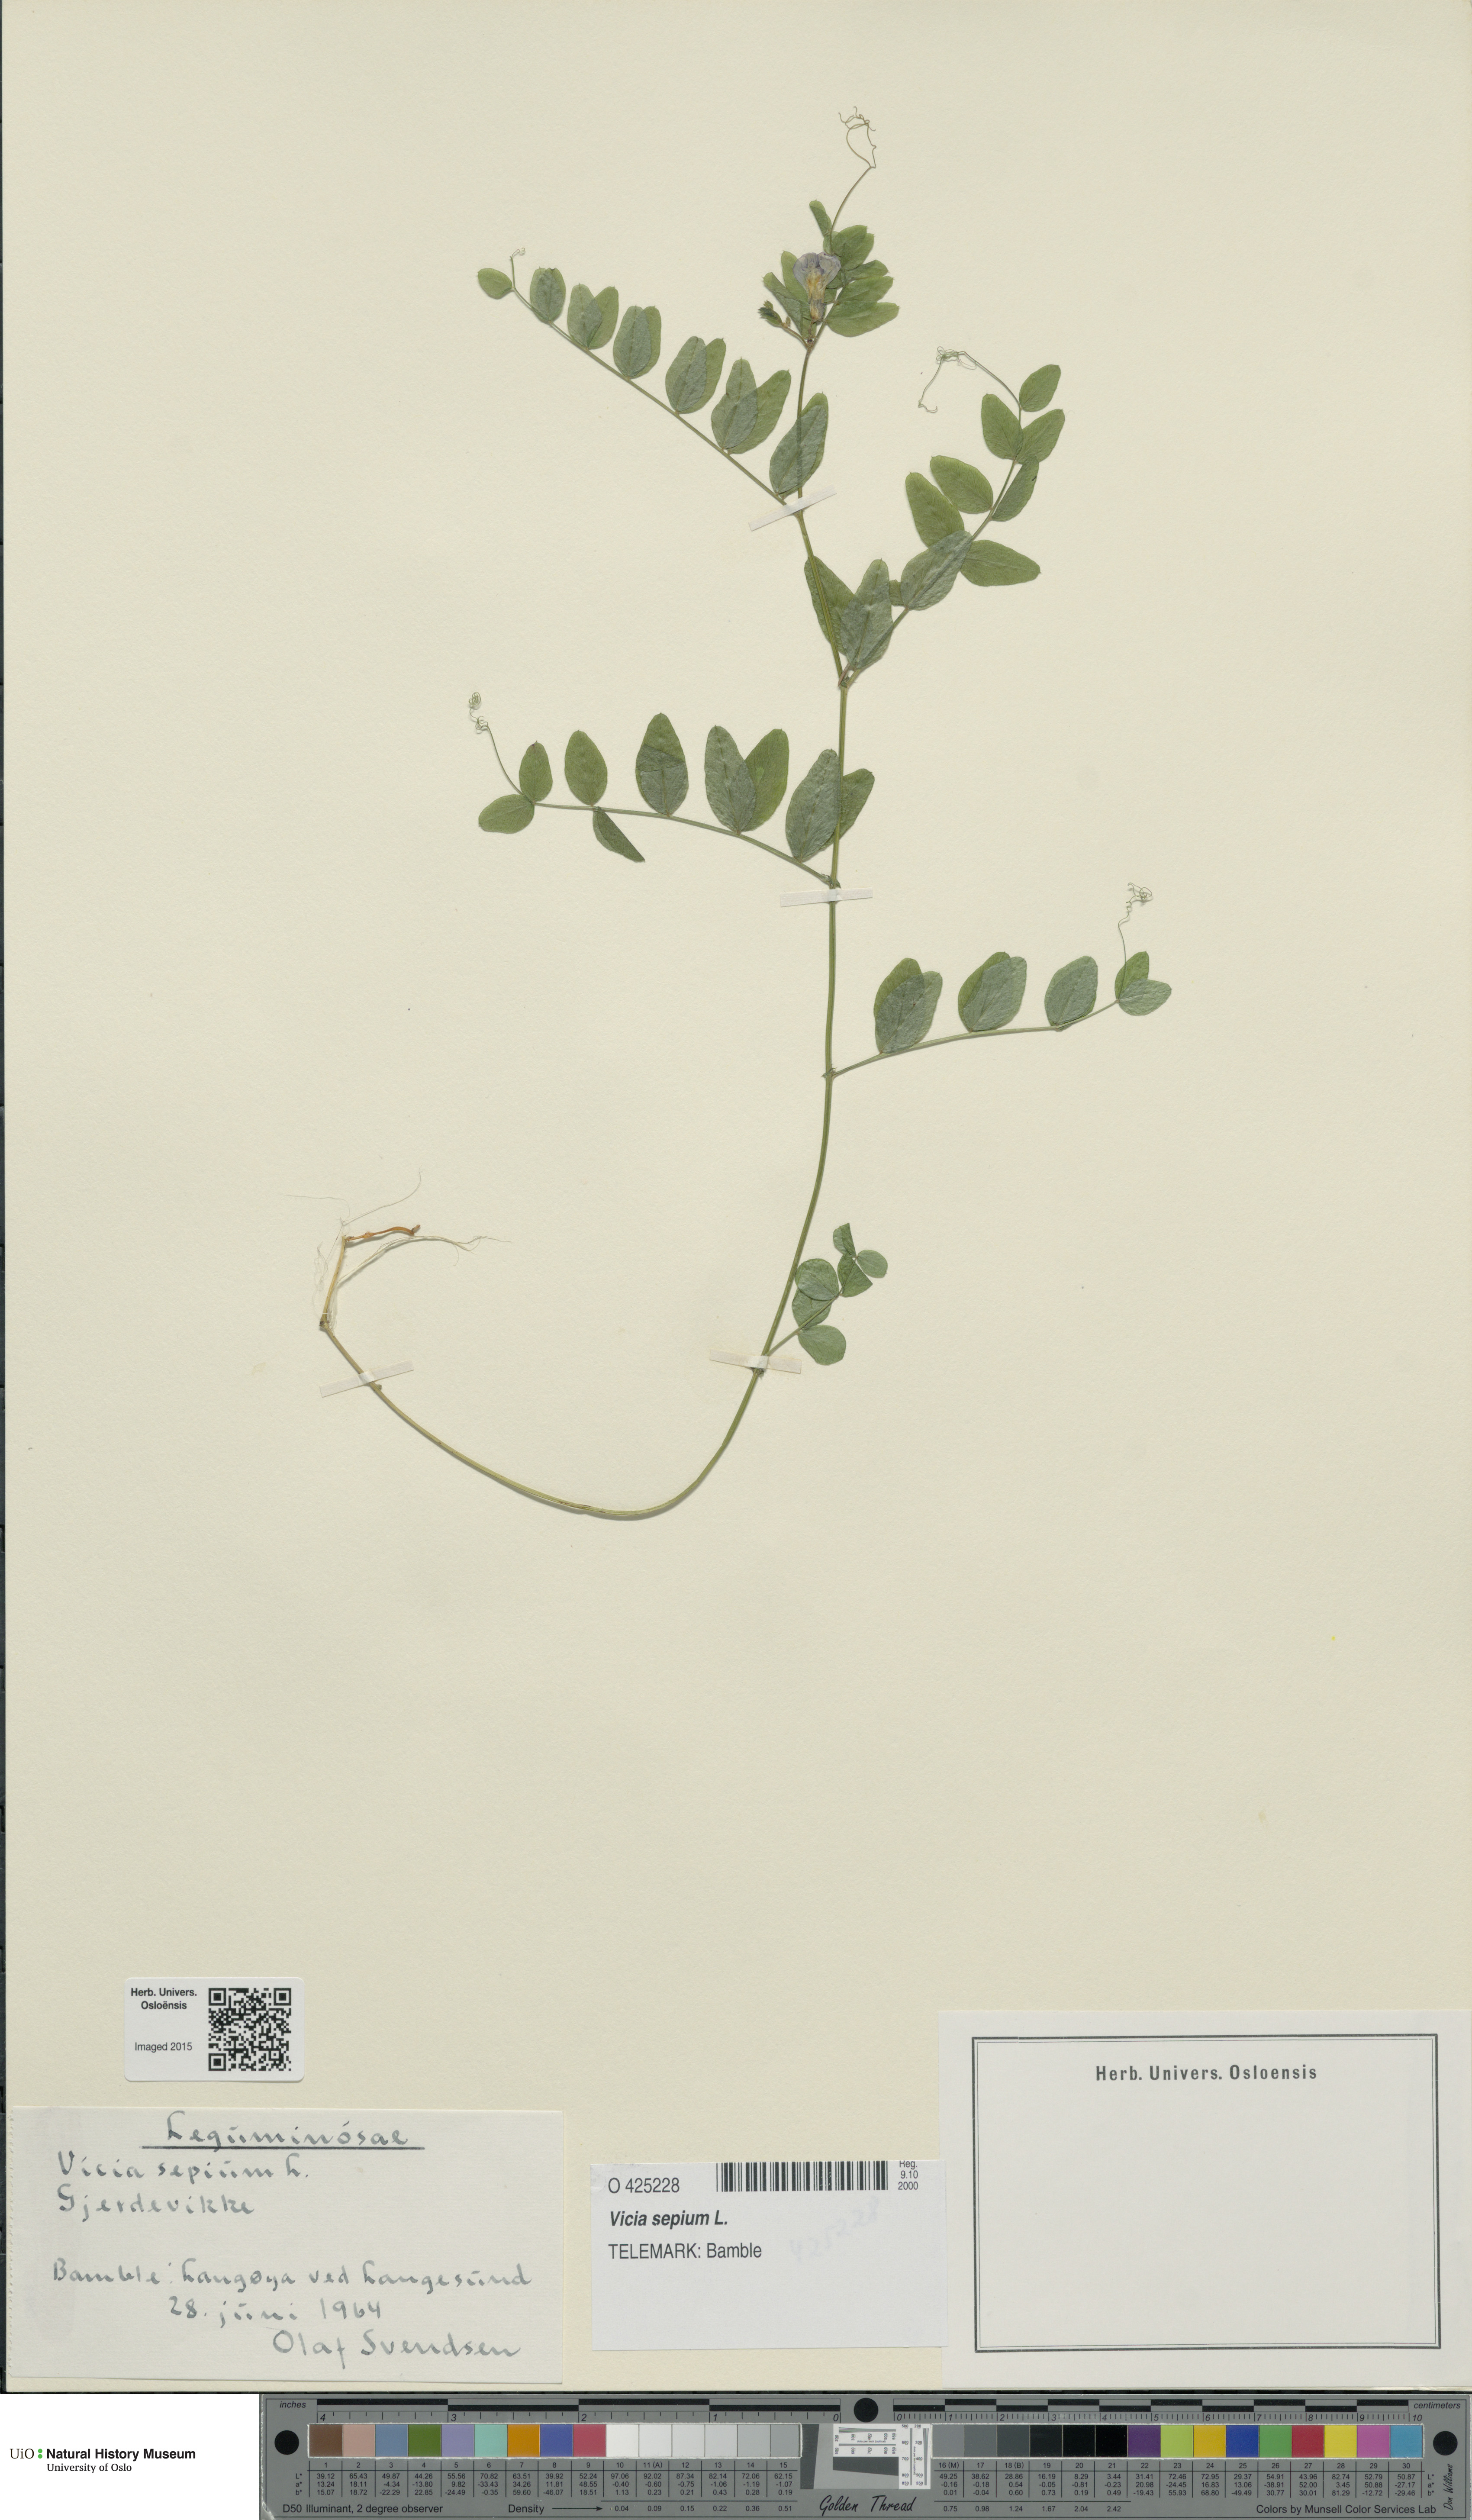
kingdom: Plantae
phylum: Tracheophyta
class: Magnoliopsida
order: Fabales
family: Fabaceae
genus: Vicia
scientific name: Vicia sepium
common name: Bush vetch
